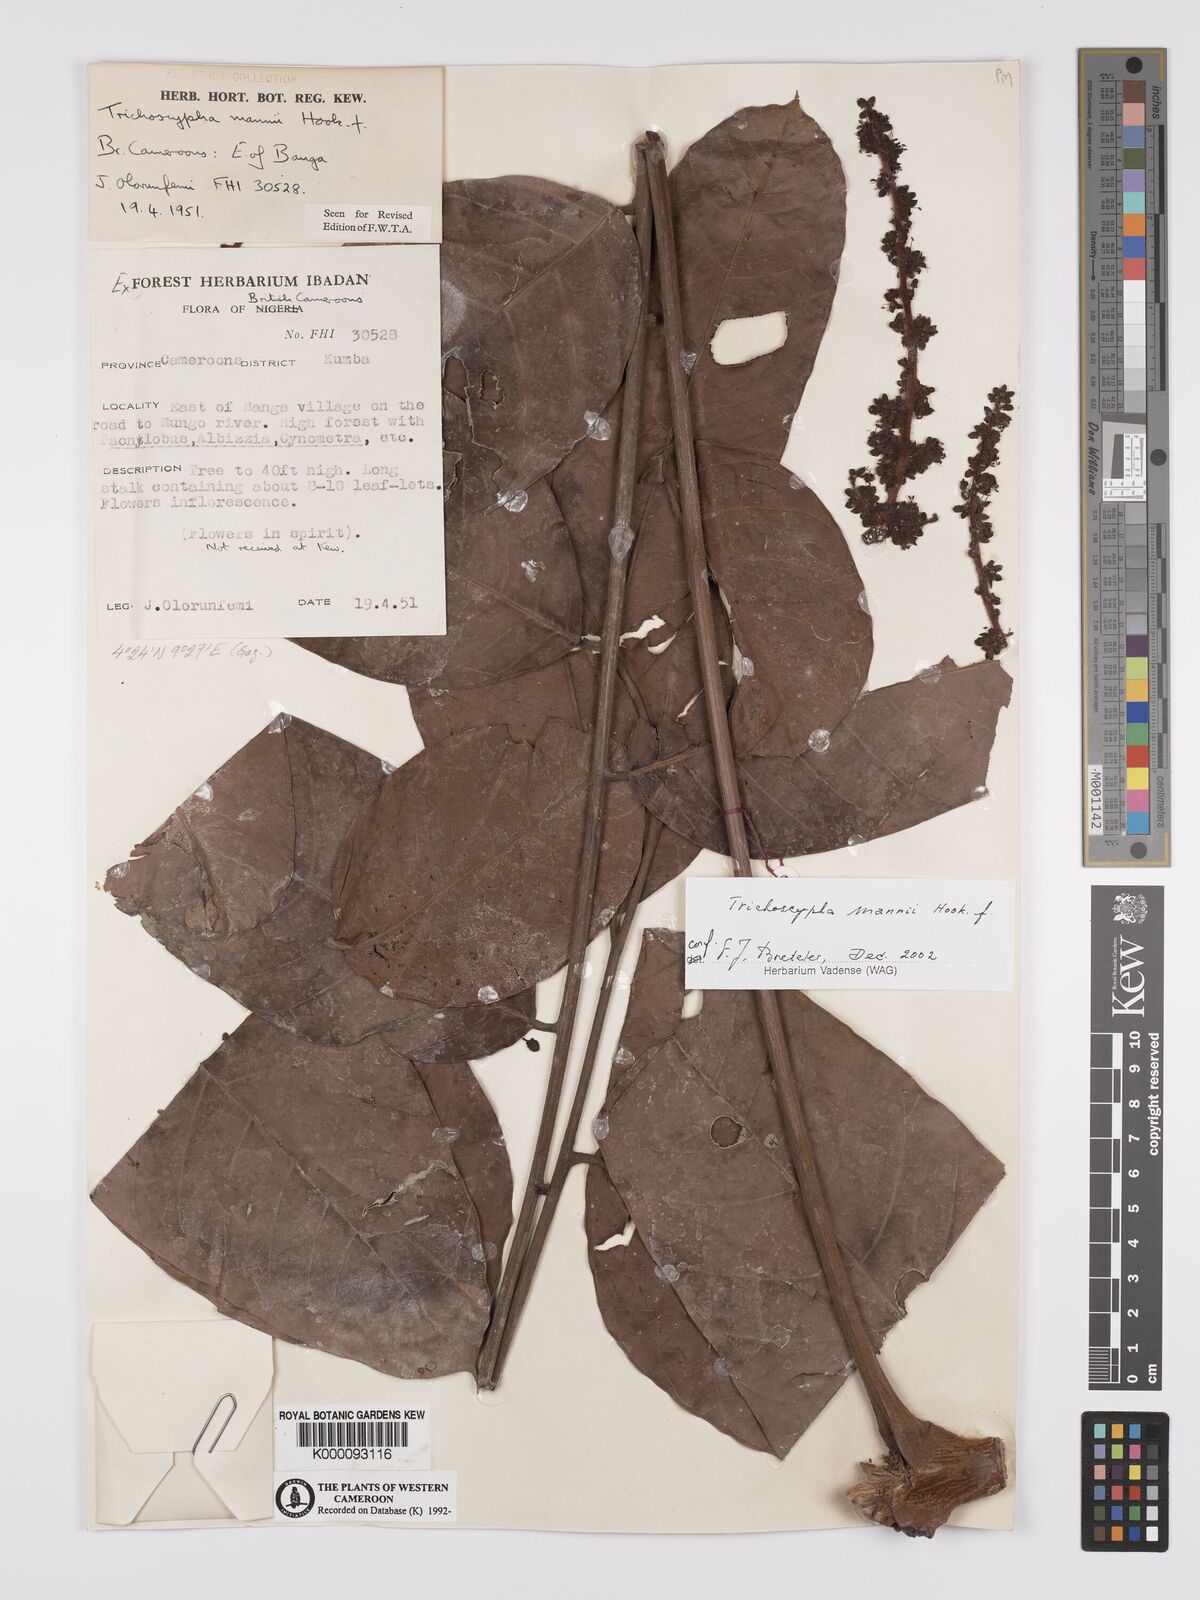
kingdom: Plantae
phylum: Tracheophyta
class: Magnoliopsida
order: Sapindales
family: Anacardiaceae
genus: Trichoscypha
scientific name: Trichoscypha mannii
